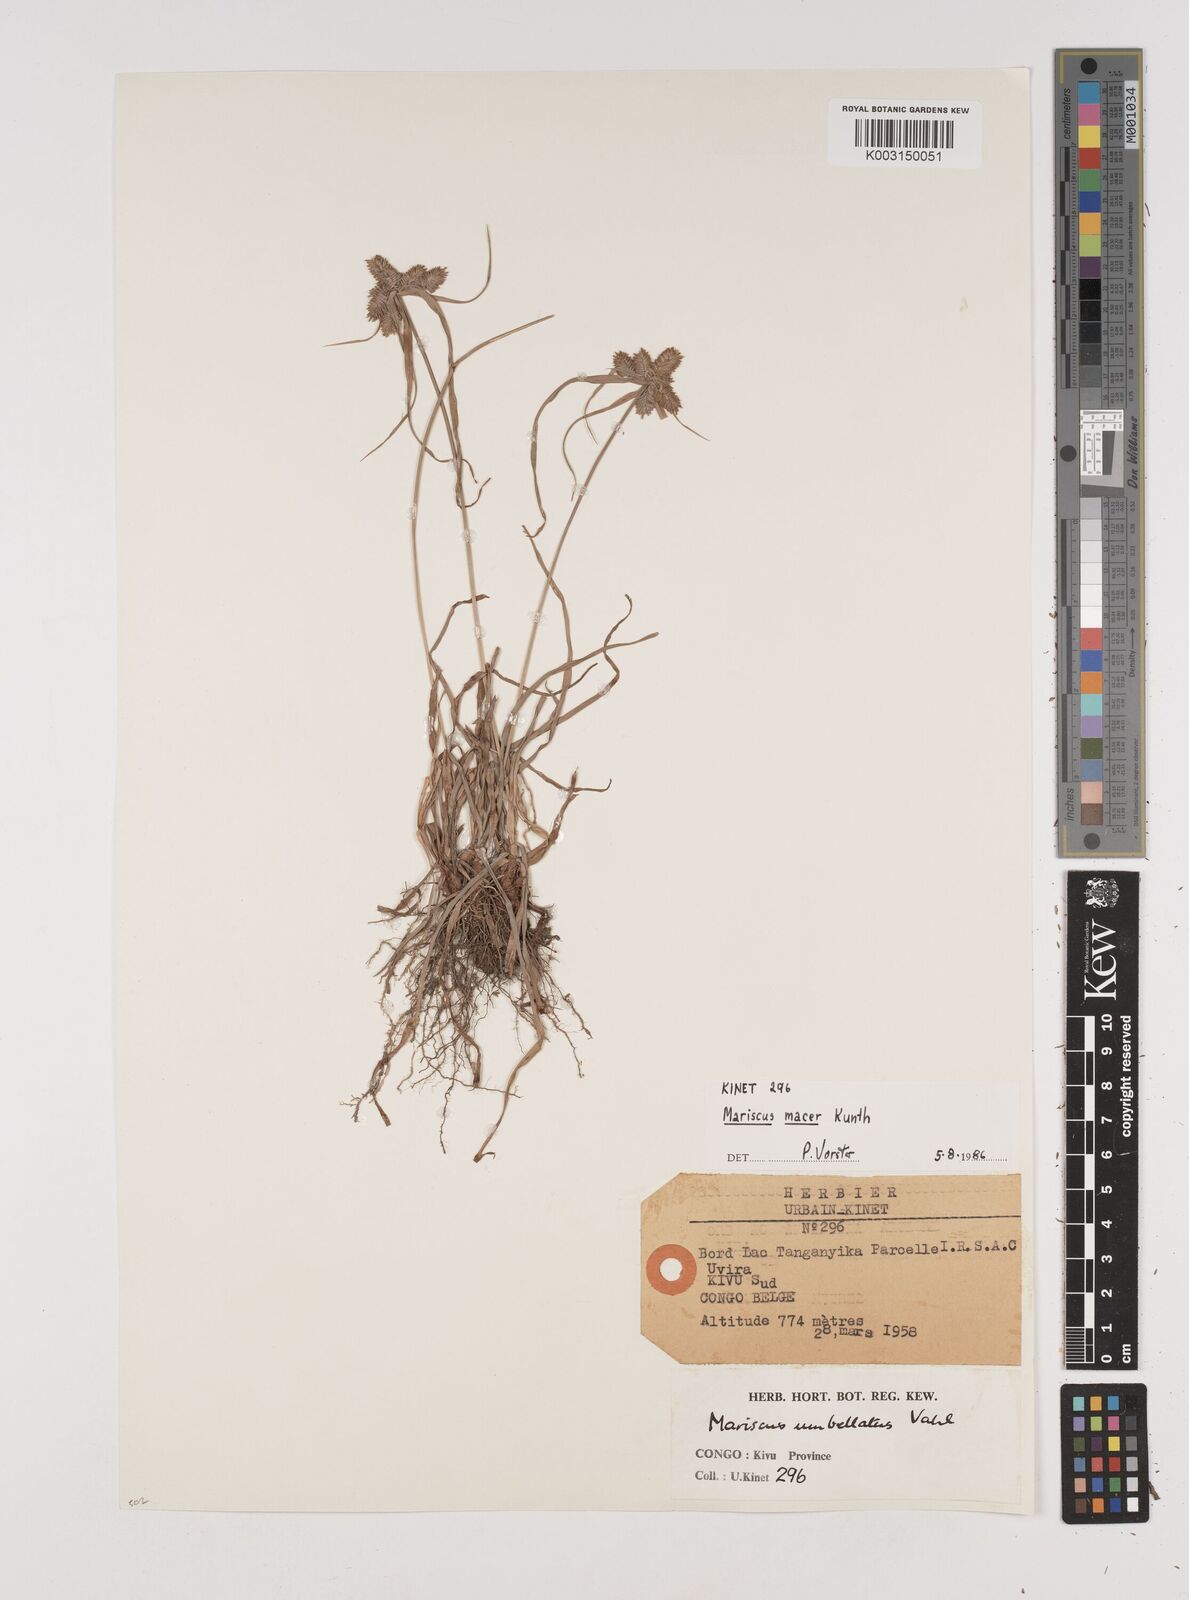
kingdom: Plantae
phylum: Tracheophyta
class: Liliopsida
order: Poales
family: Cyperaceae
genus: Cyperus
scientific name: Cyperus macrocarpus
